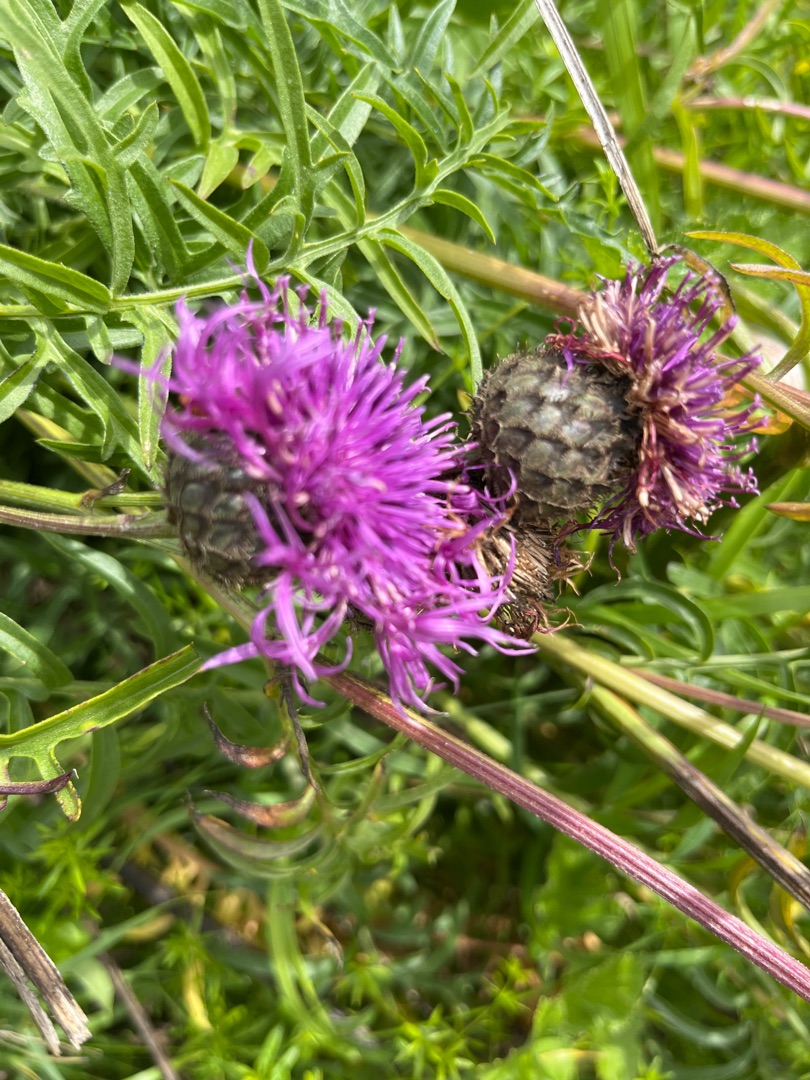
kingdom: Plantae
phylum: Tracheophyta
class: Magnoliopsida
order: Asterales
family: Asteraceae
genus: Centaurea
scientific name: Centaurea scabiosa
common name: Stor knopurt
